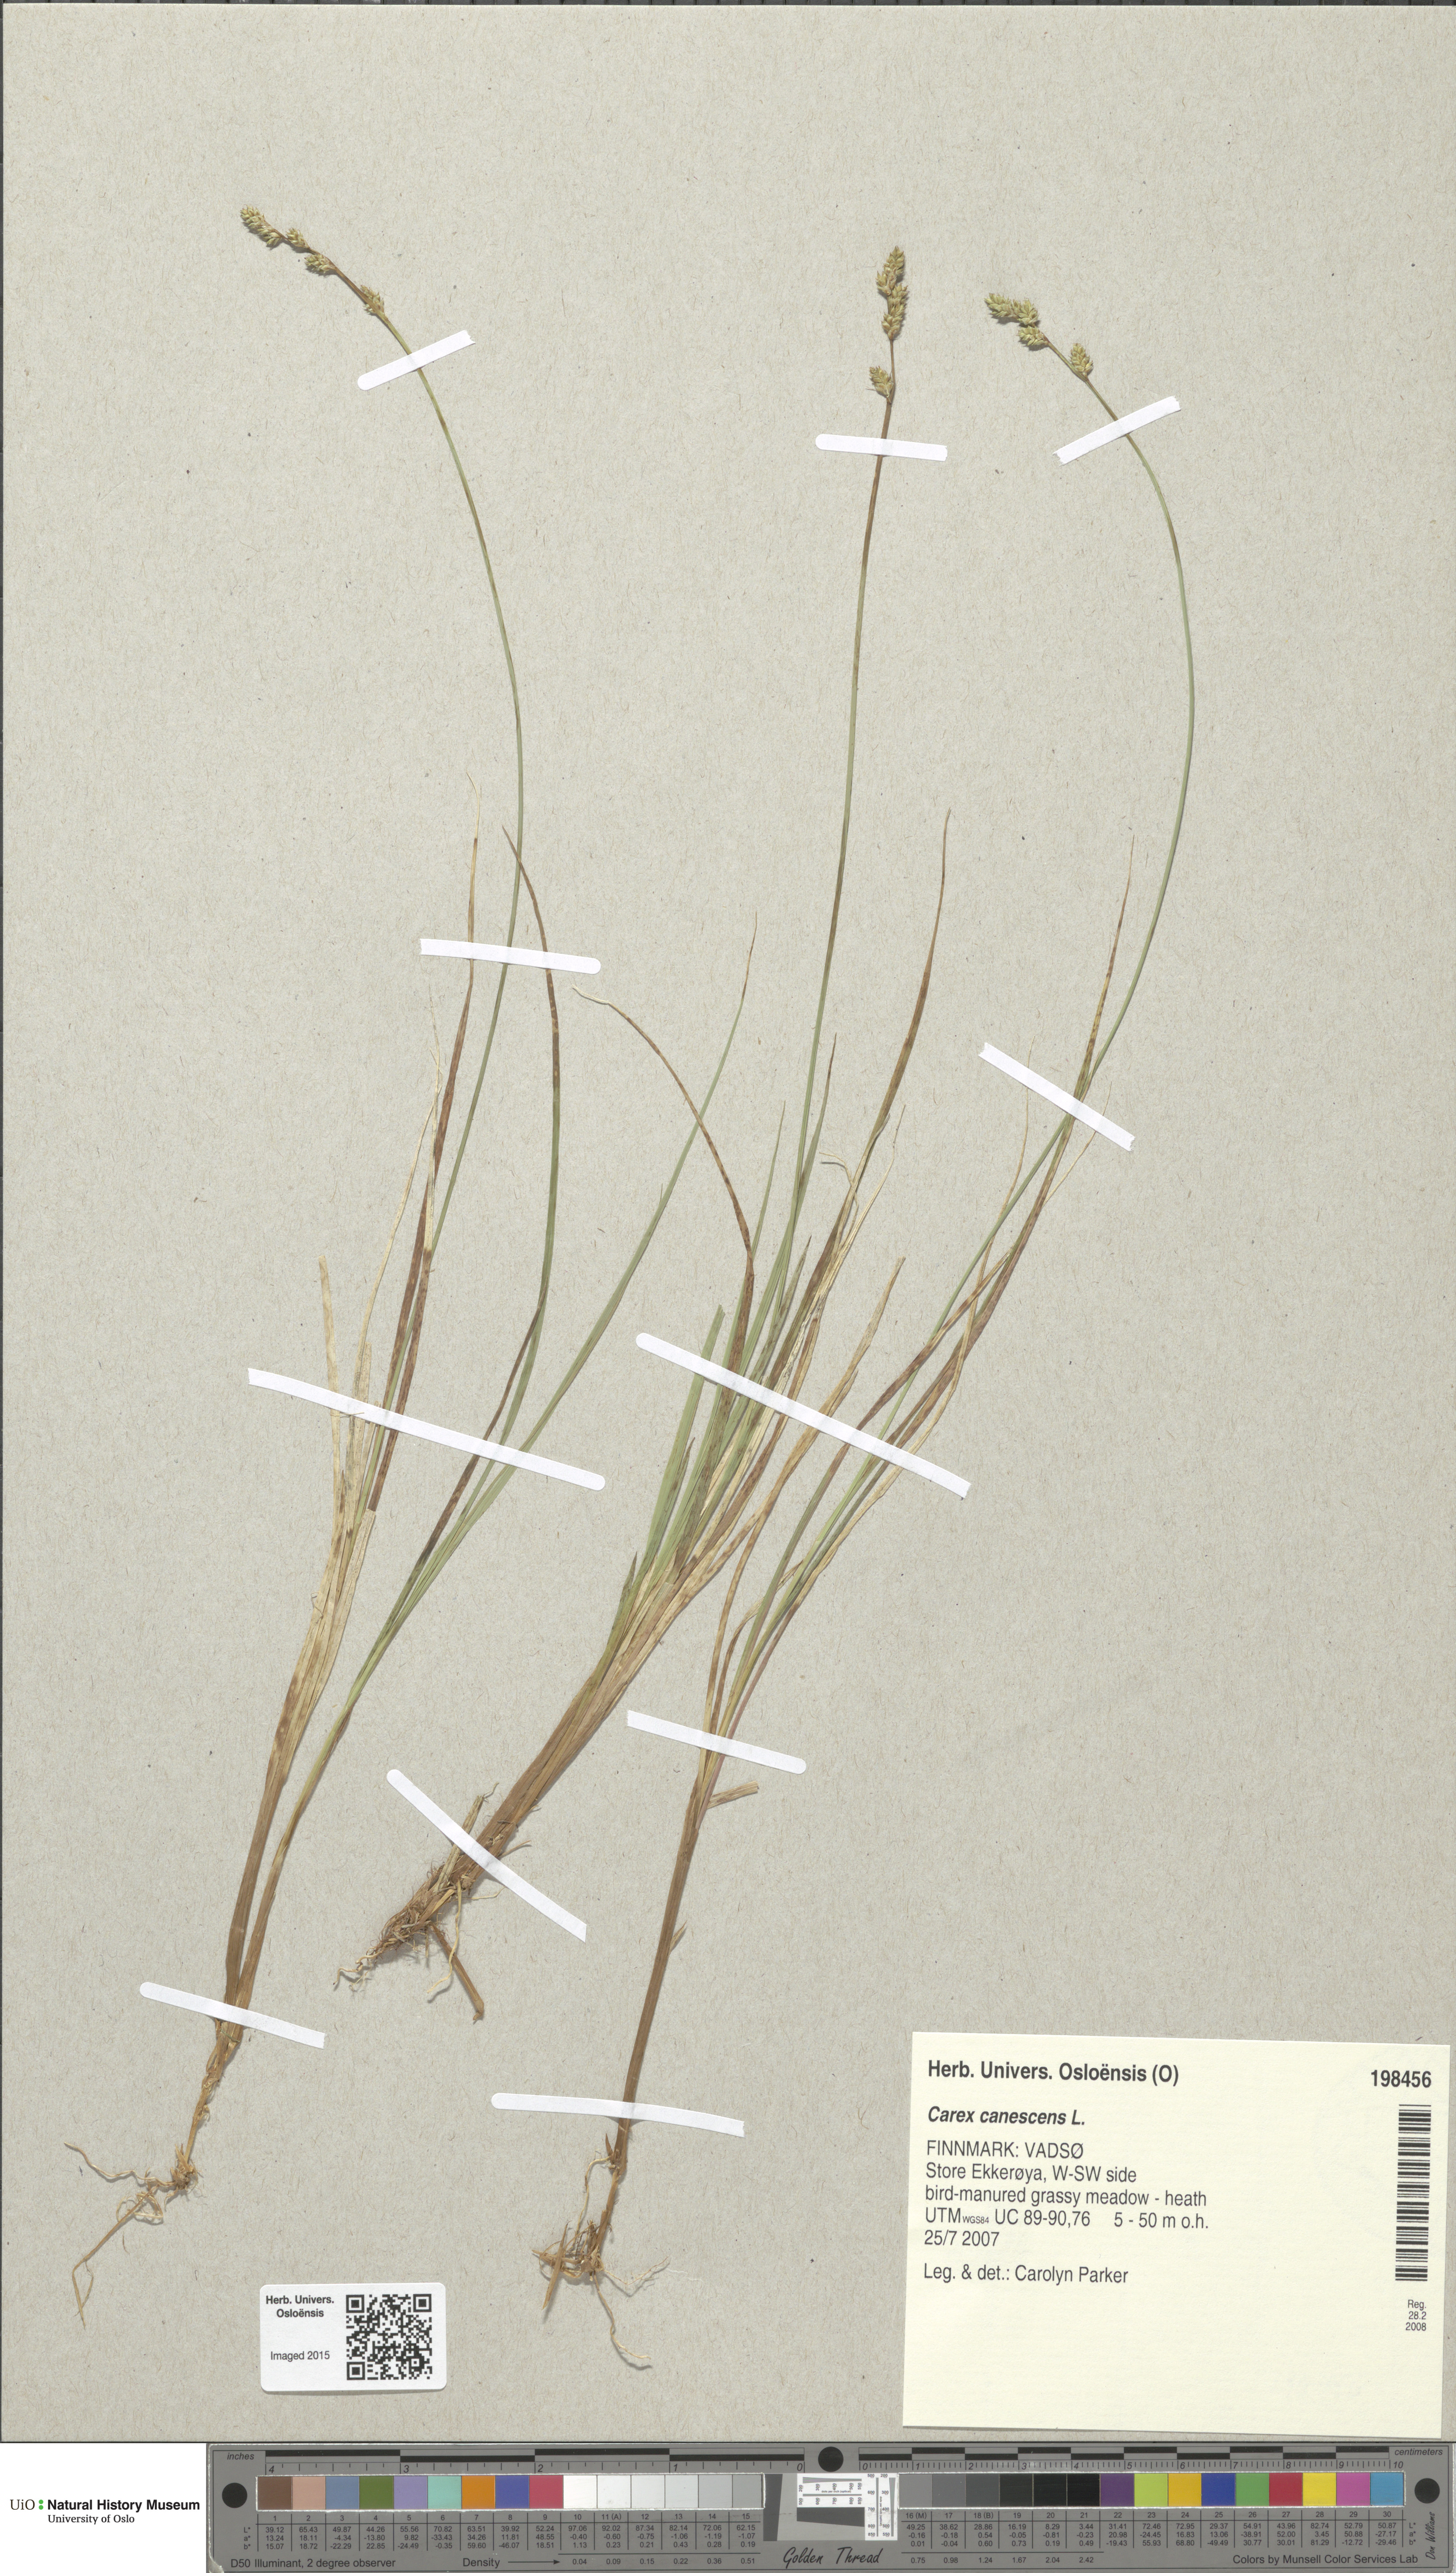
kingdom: Plantae
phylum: Tracheophyta
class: Liliopsida
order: Poales
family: Cyperaceae
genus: Carex
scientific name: Carex canescens
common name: White sedge
